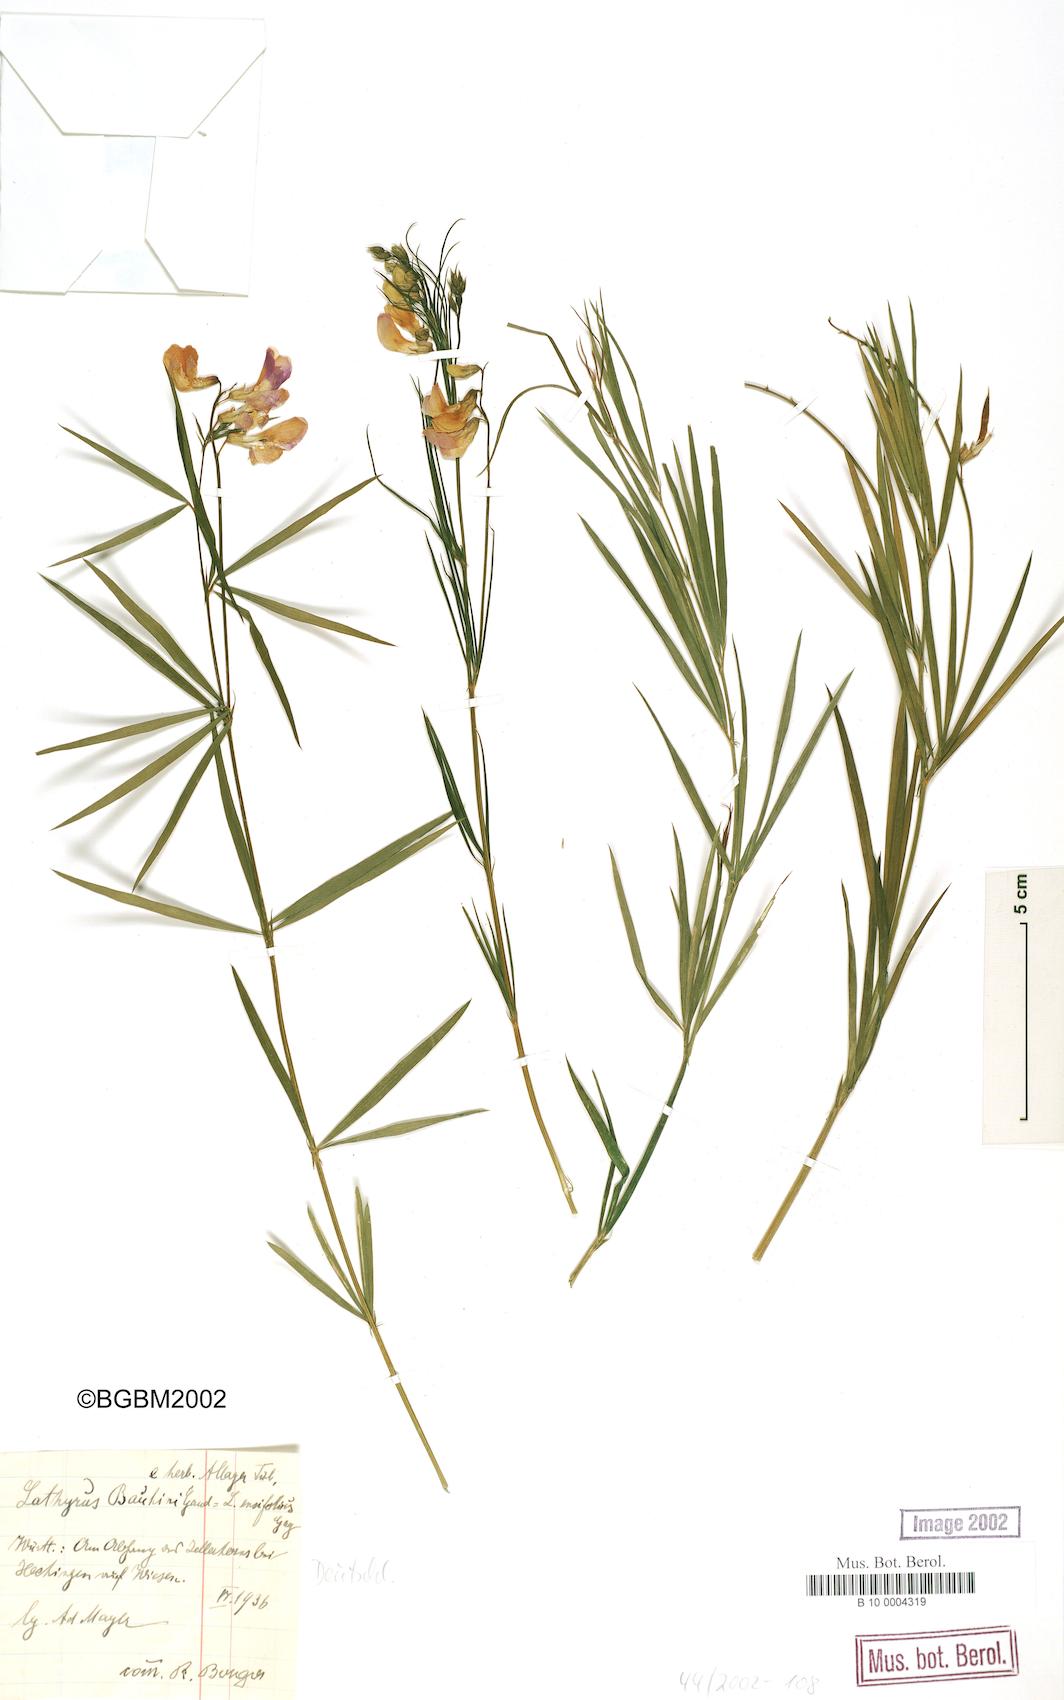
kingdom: Plantae
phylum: Tracheophyta
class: Magnoliopsida
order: Fabales
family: Fabaceae
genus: Lathyrus
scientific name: Lathyrus bauhini
